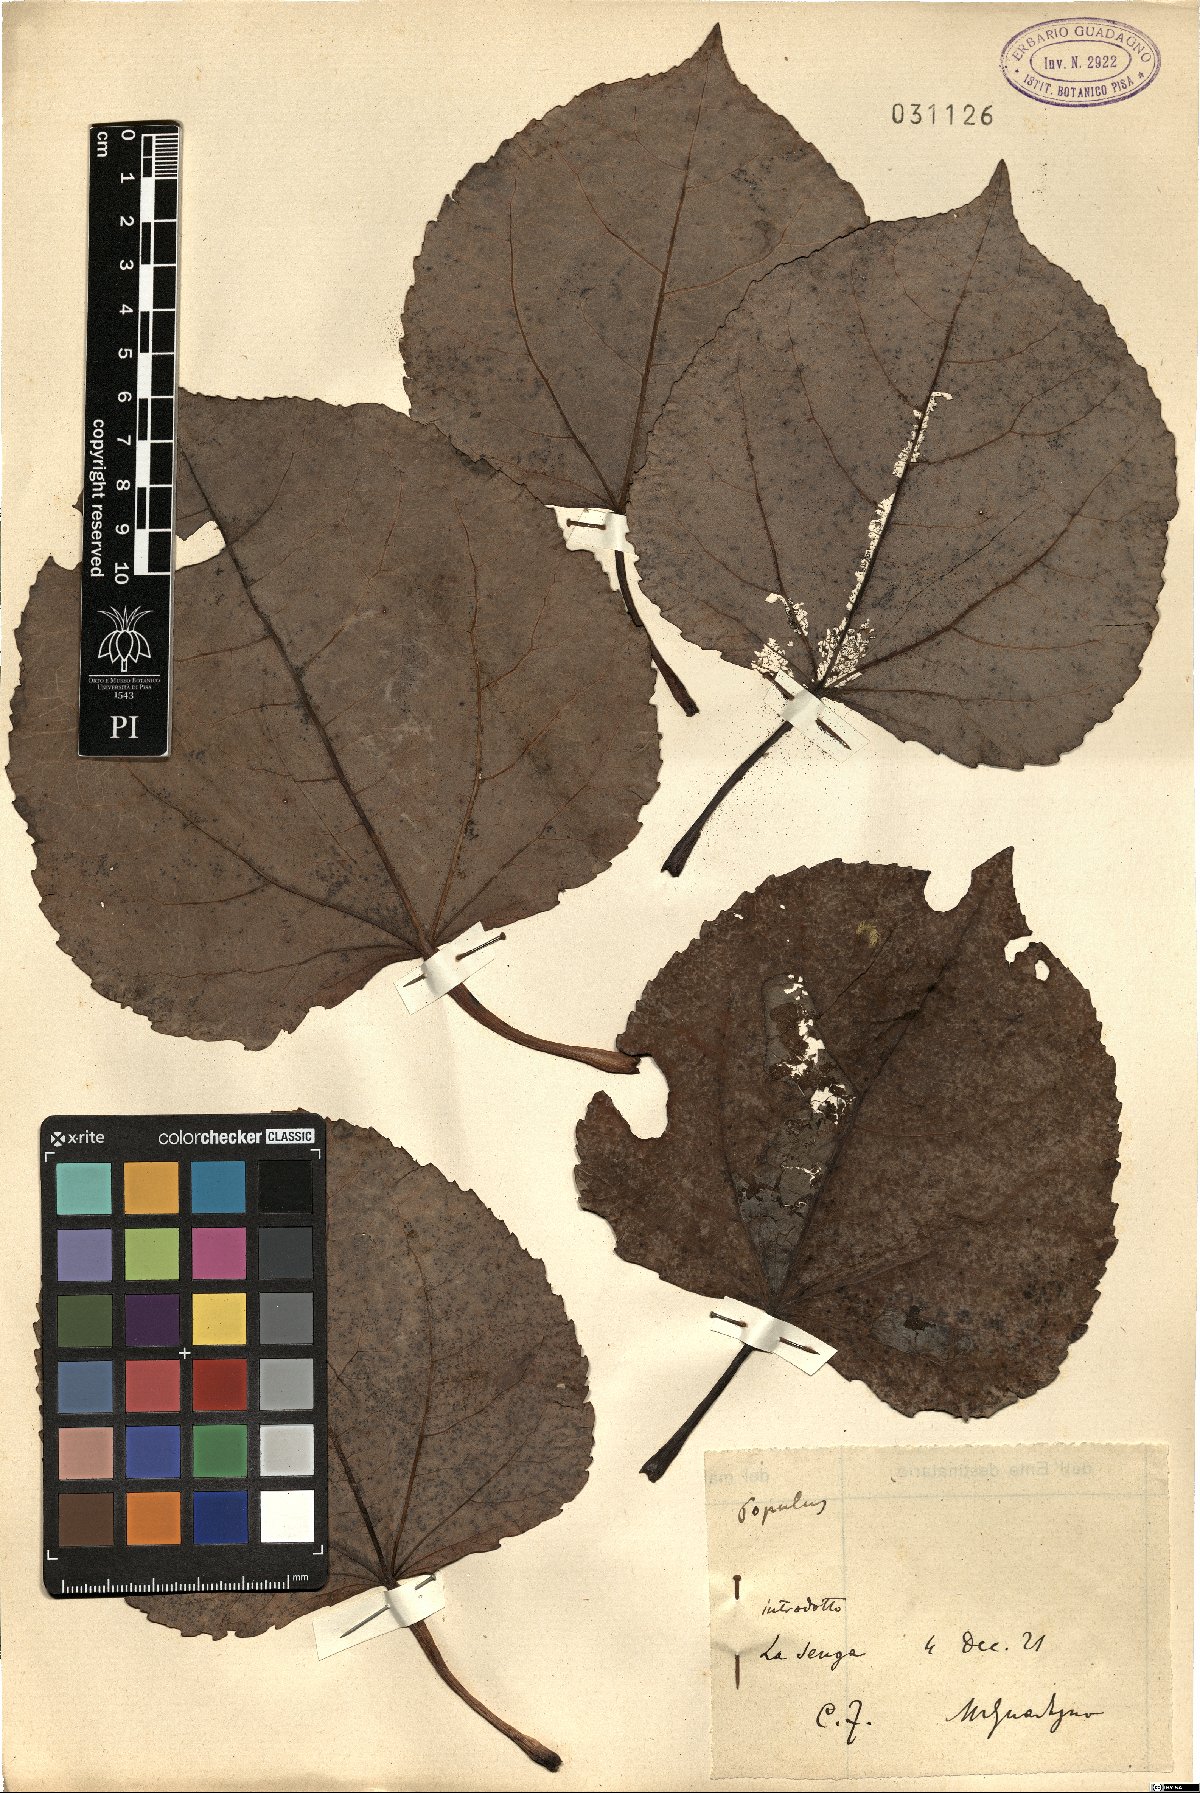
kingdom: Plantae
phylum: Tracheophyta
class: Magnoliopsida
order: Malpighiales
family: Salicaceae
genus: Populus
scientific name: Populus
